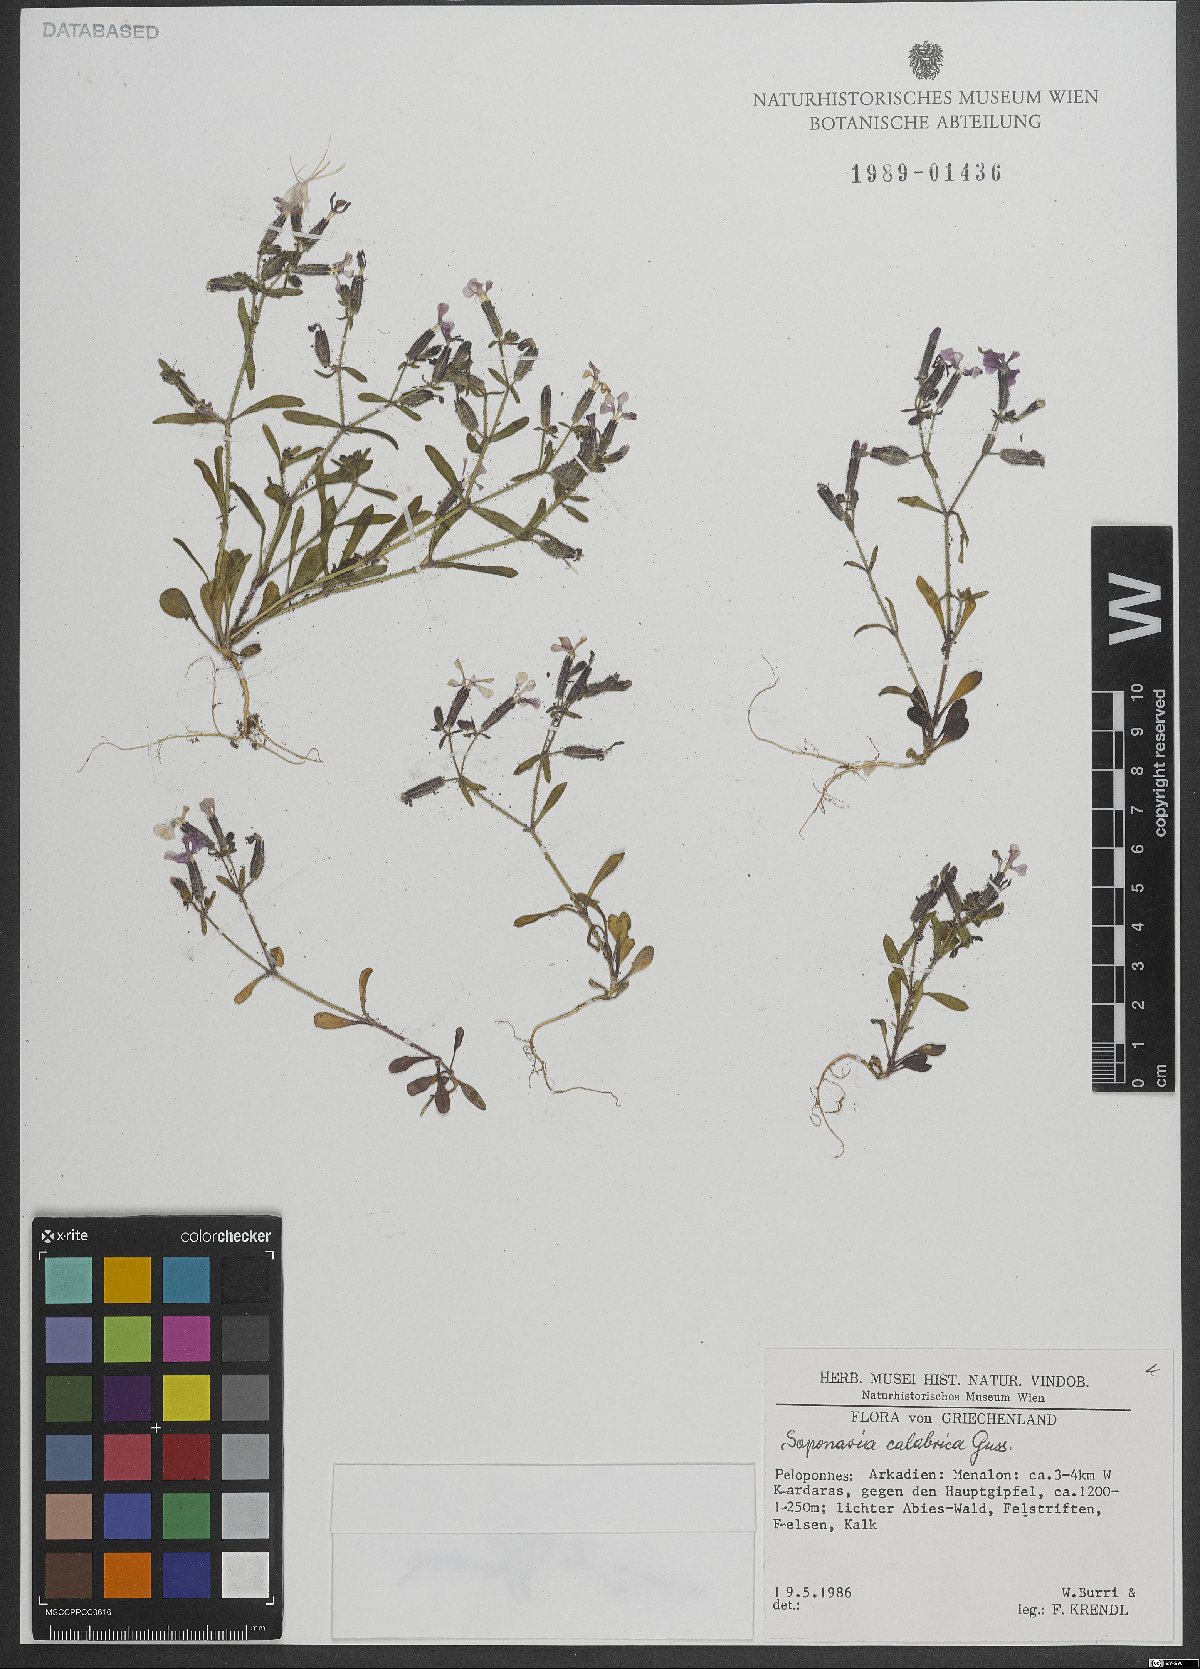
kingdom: Plantae
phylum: Tracheophyta
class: Magnoliopsida
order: Caryophyllales
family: Caryophyllaceae
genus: Saponaria
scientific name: Saponaria calabrica
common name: Adriatic soapwort
